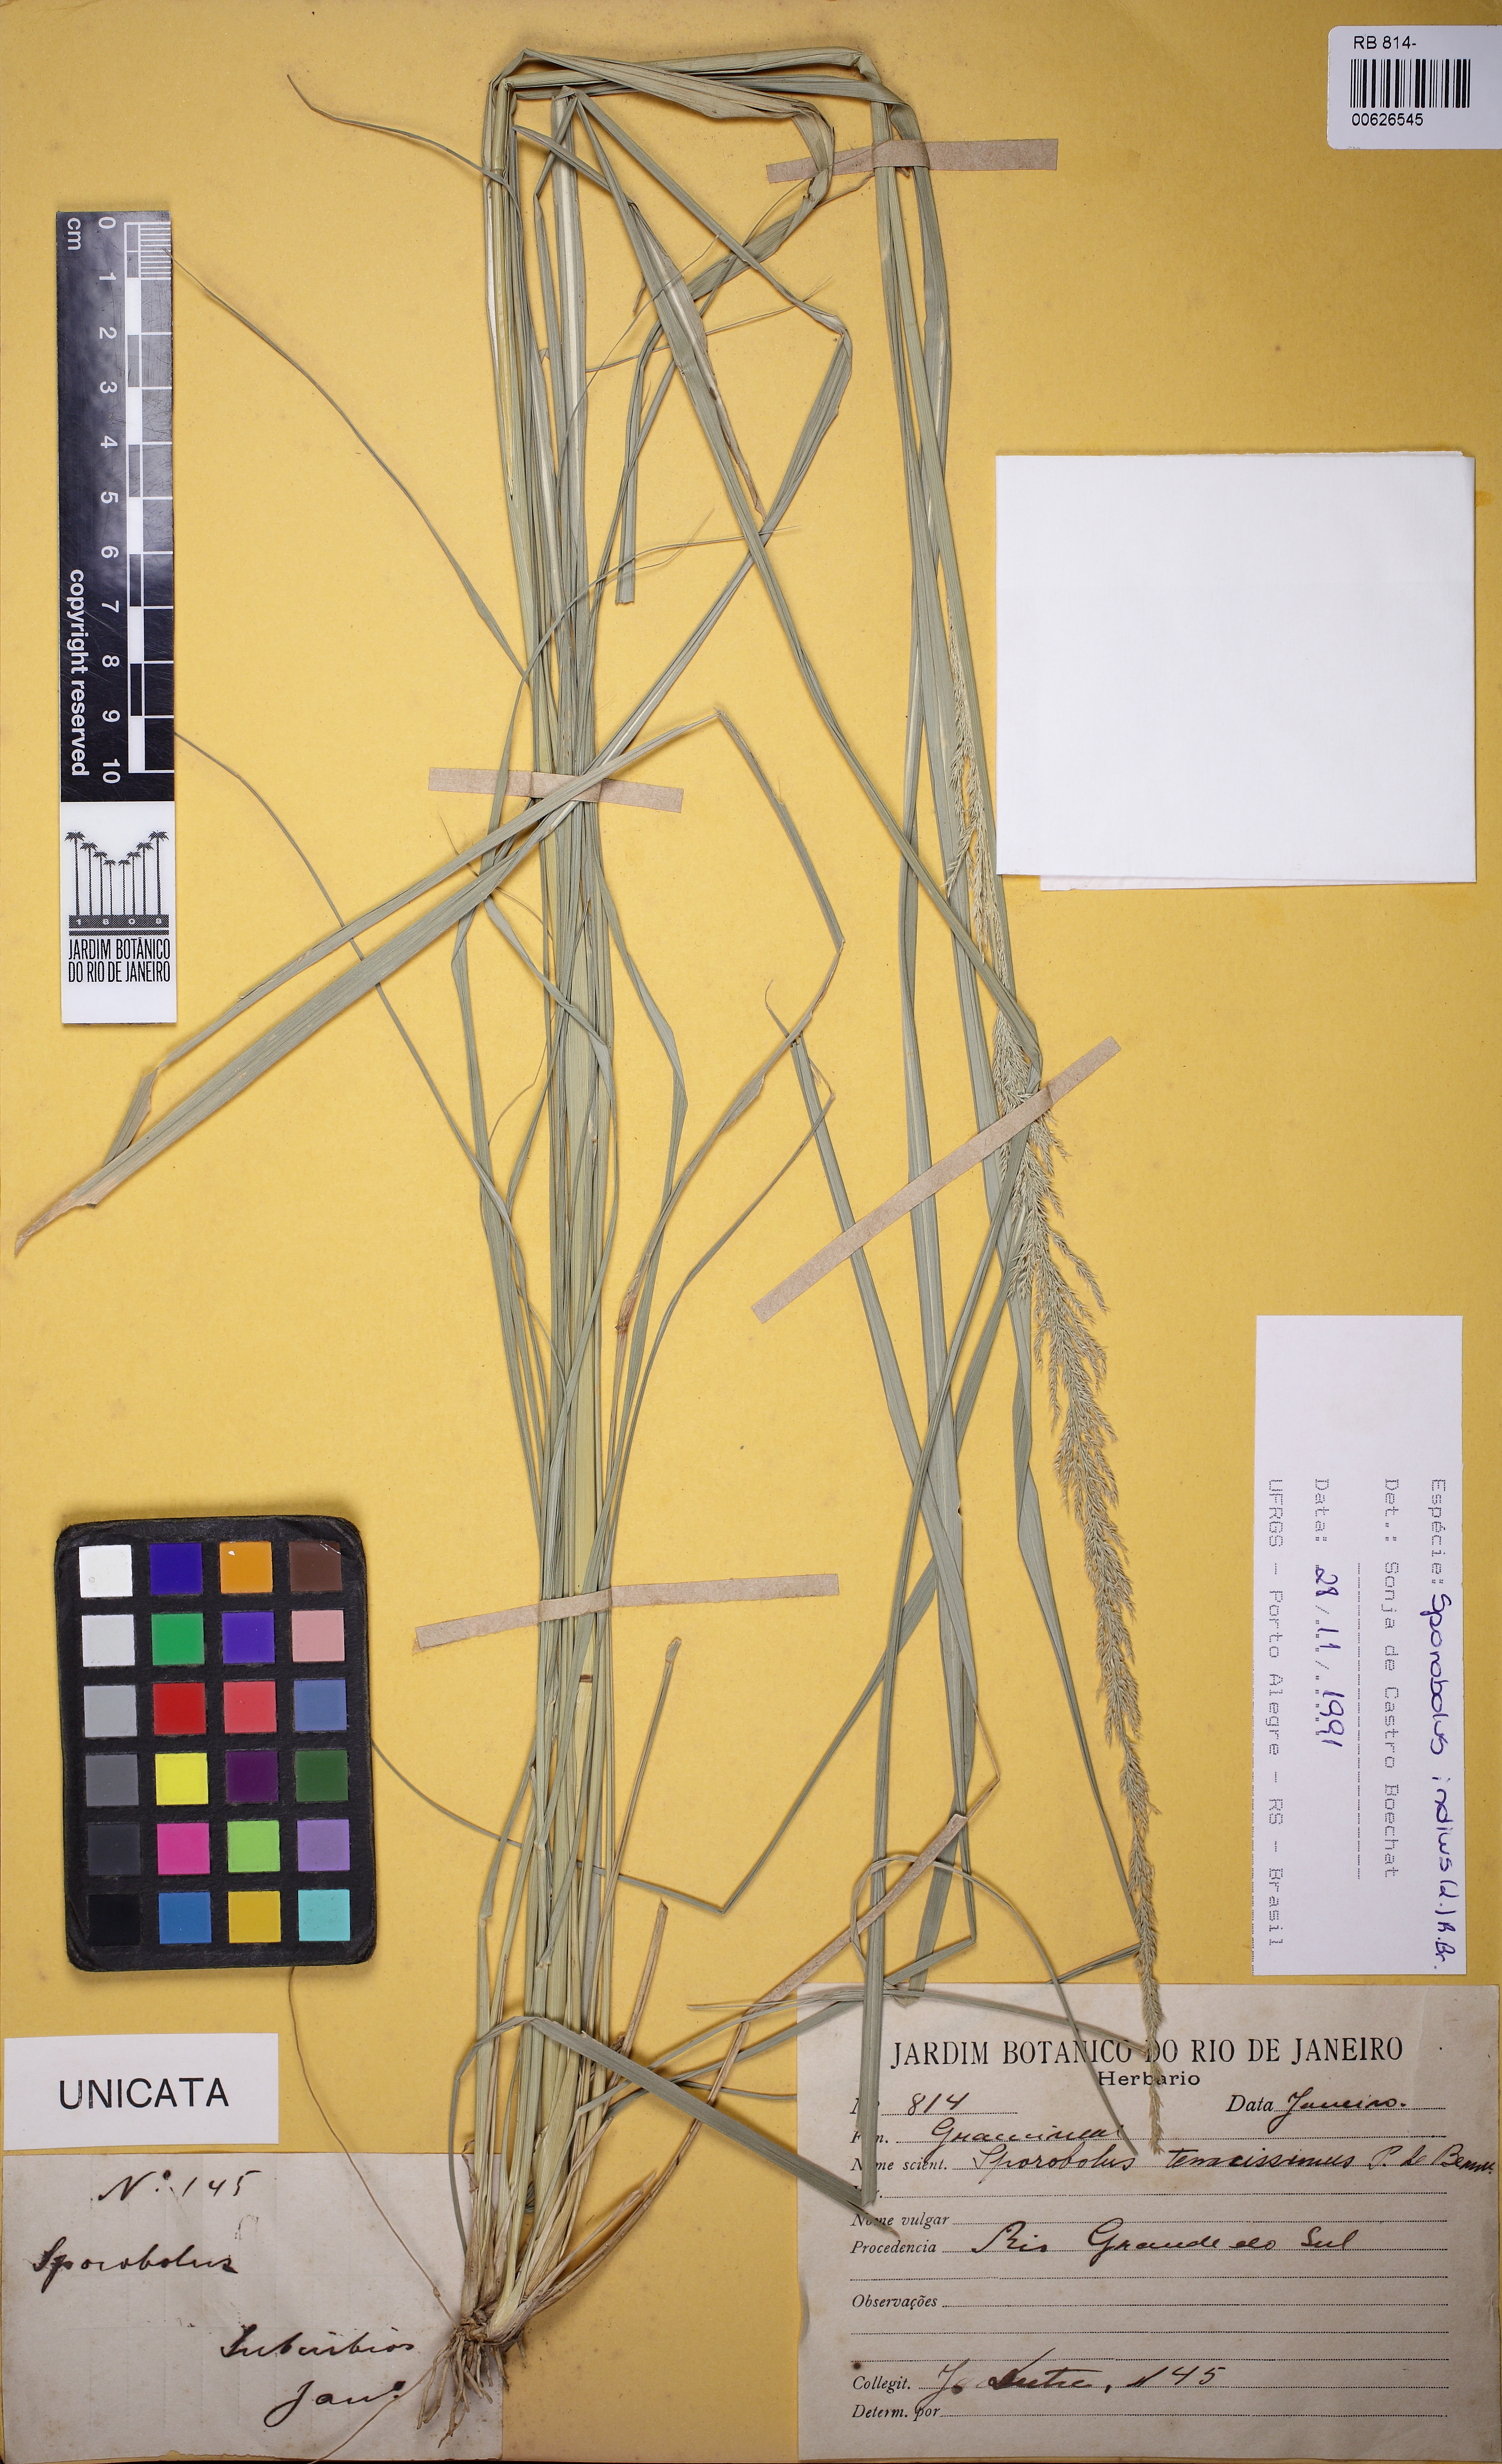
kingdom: Plantae
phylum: Tracheophyta
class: Liliopsida
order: Poales
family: Poaceae
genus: Sporobolus
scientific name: Sporobolus indicus
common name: Smut grass
